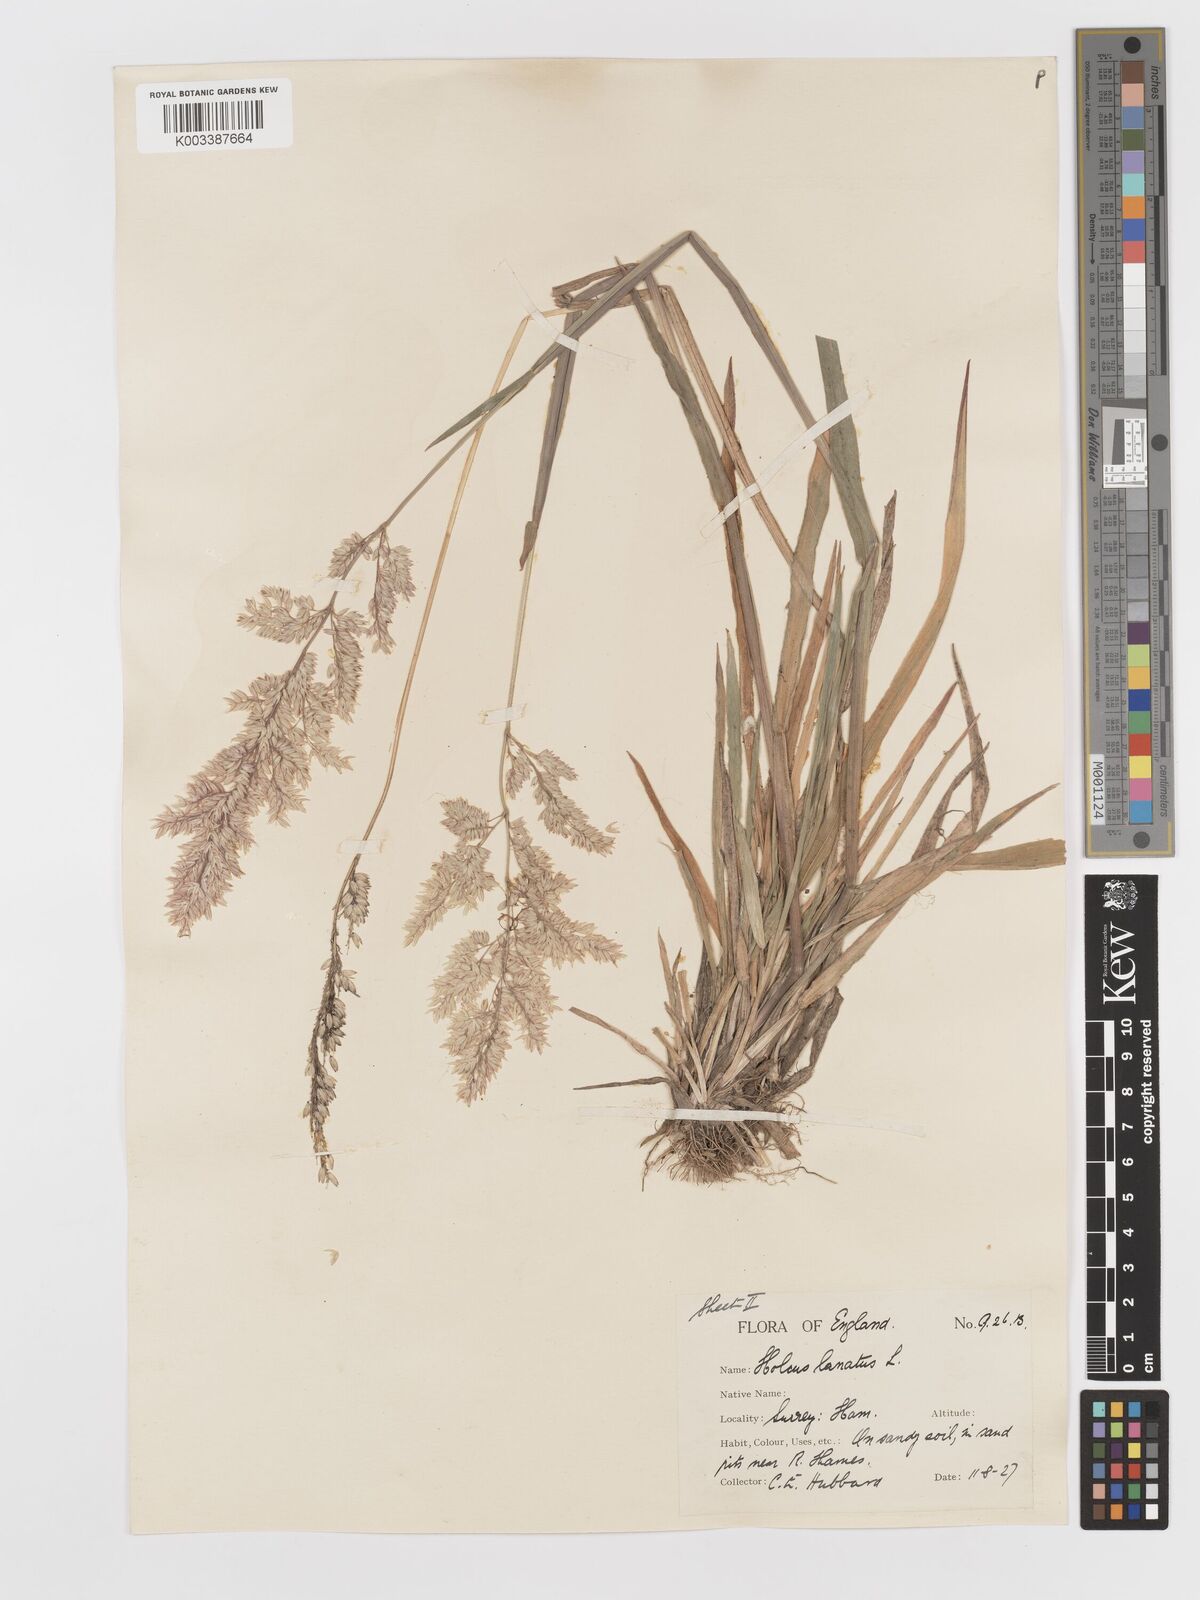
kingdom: Plantae
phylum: Tracheophyta
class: Liliopsida
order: Poales
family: Poaceae
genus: Holcus
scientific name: Holcus lanatus
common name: Yorkshire-fog
